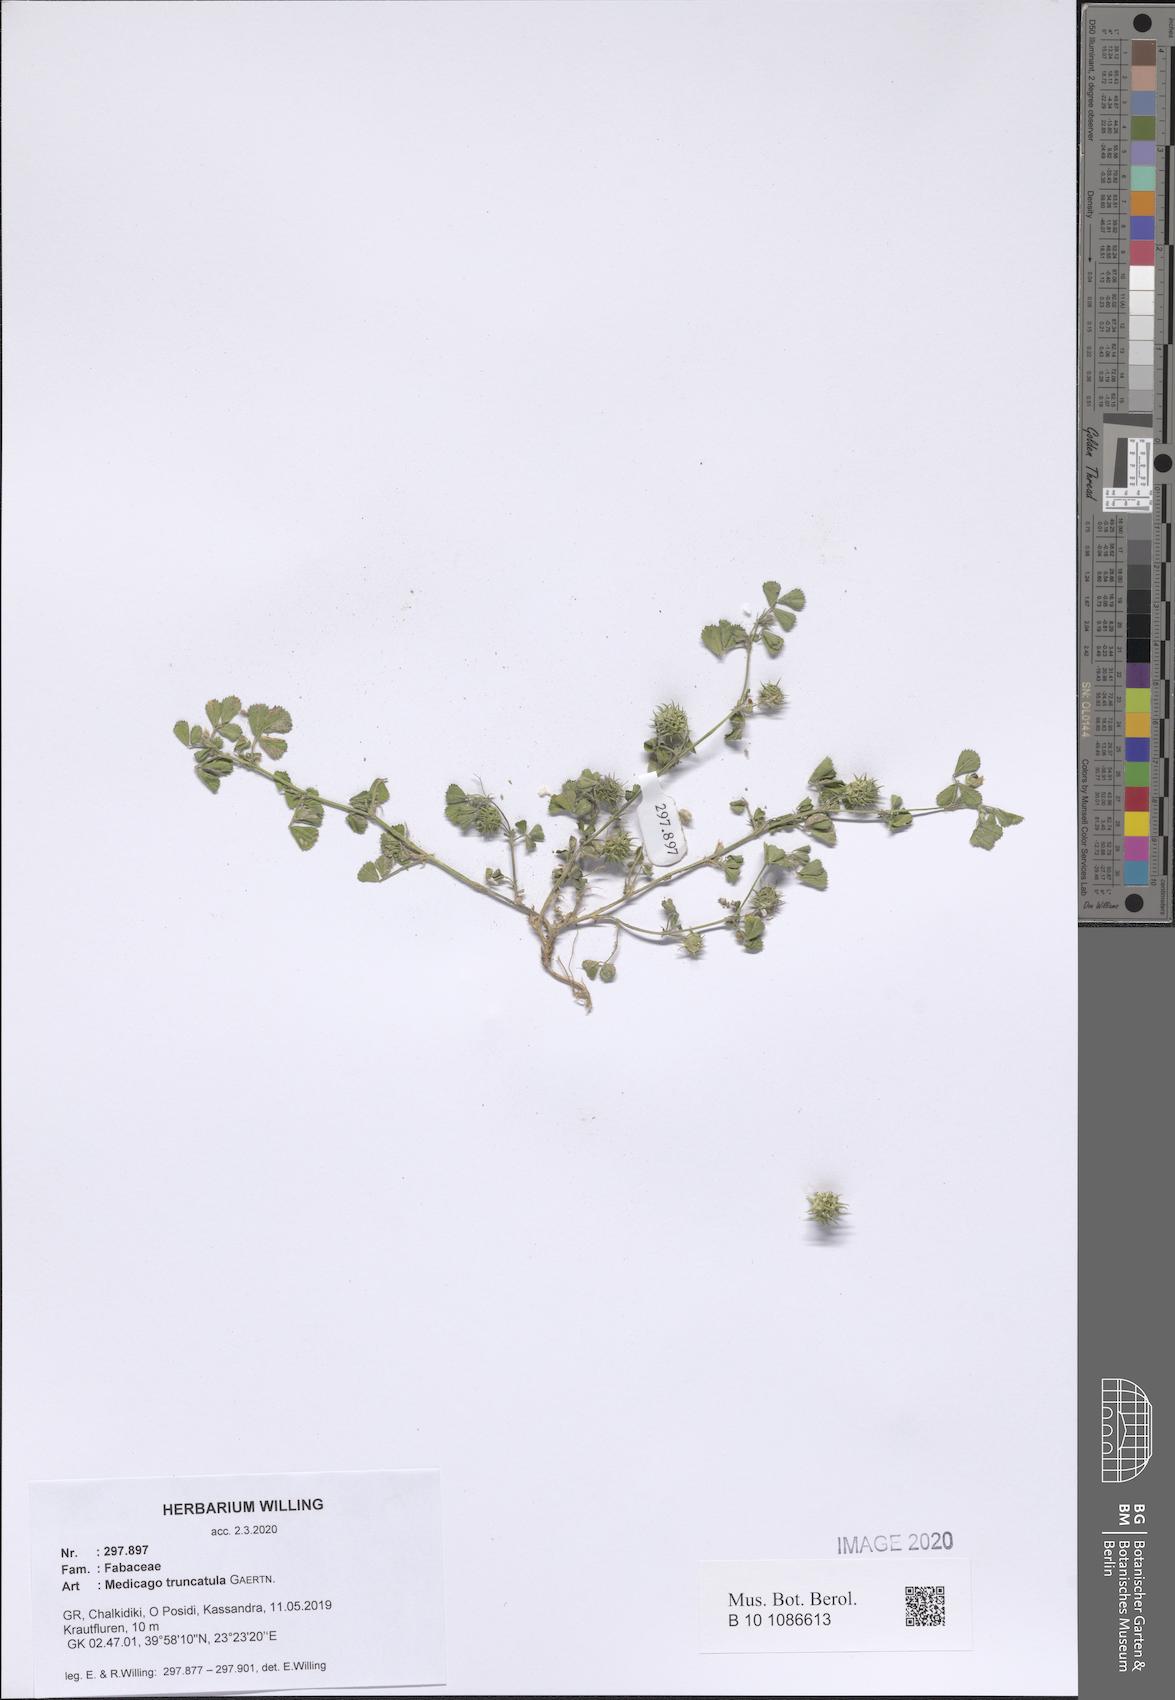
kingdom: Plantae
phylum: Tracheophyta
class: Magnoliopsida
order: Fabales
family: Fabaceae
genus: Medicago
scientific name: Medicago truncatula
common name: Strong-spined medick
